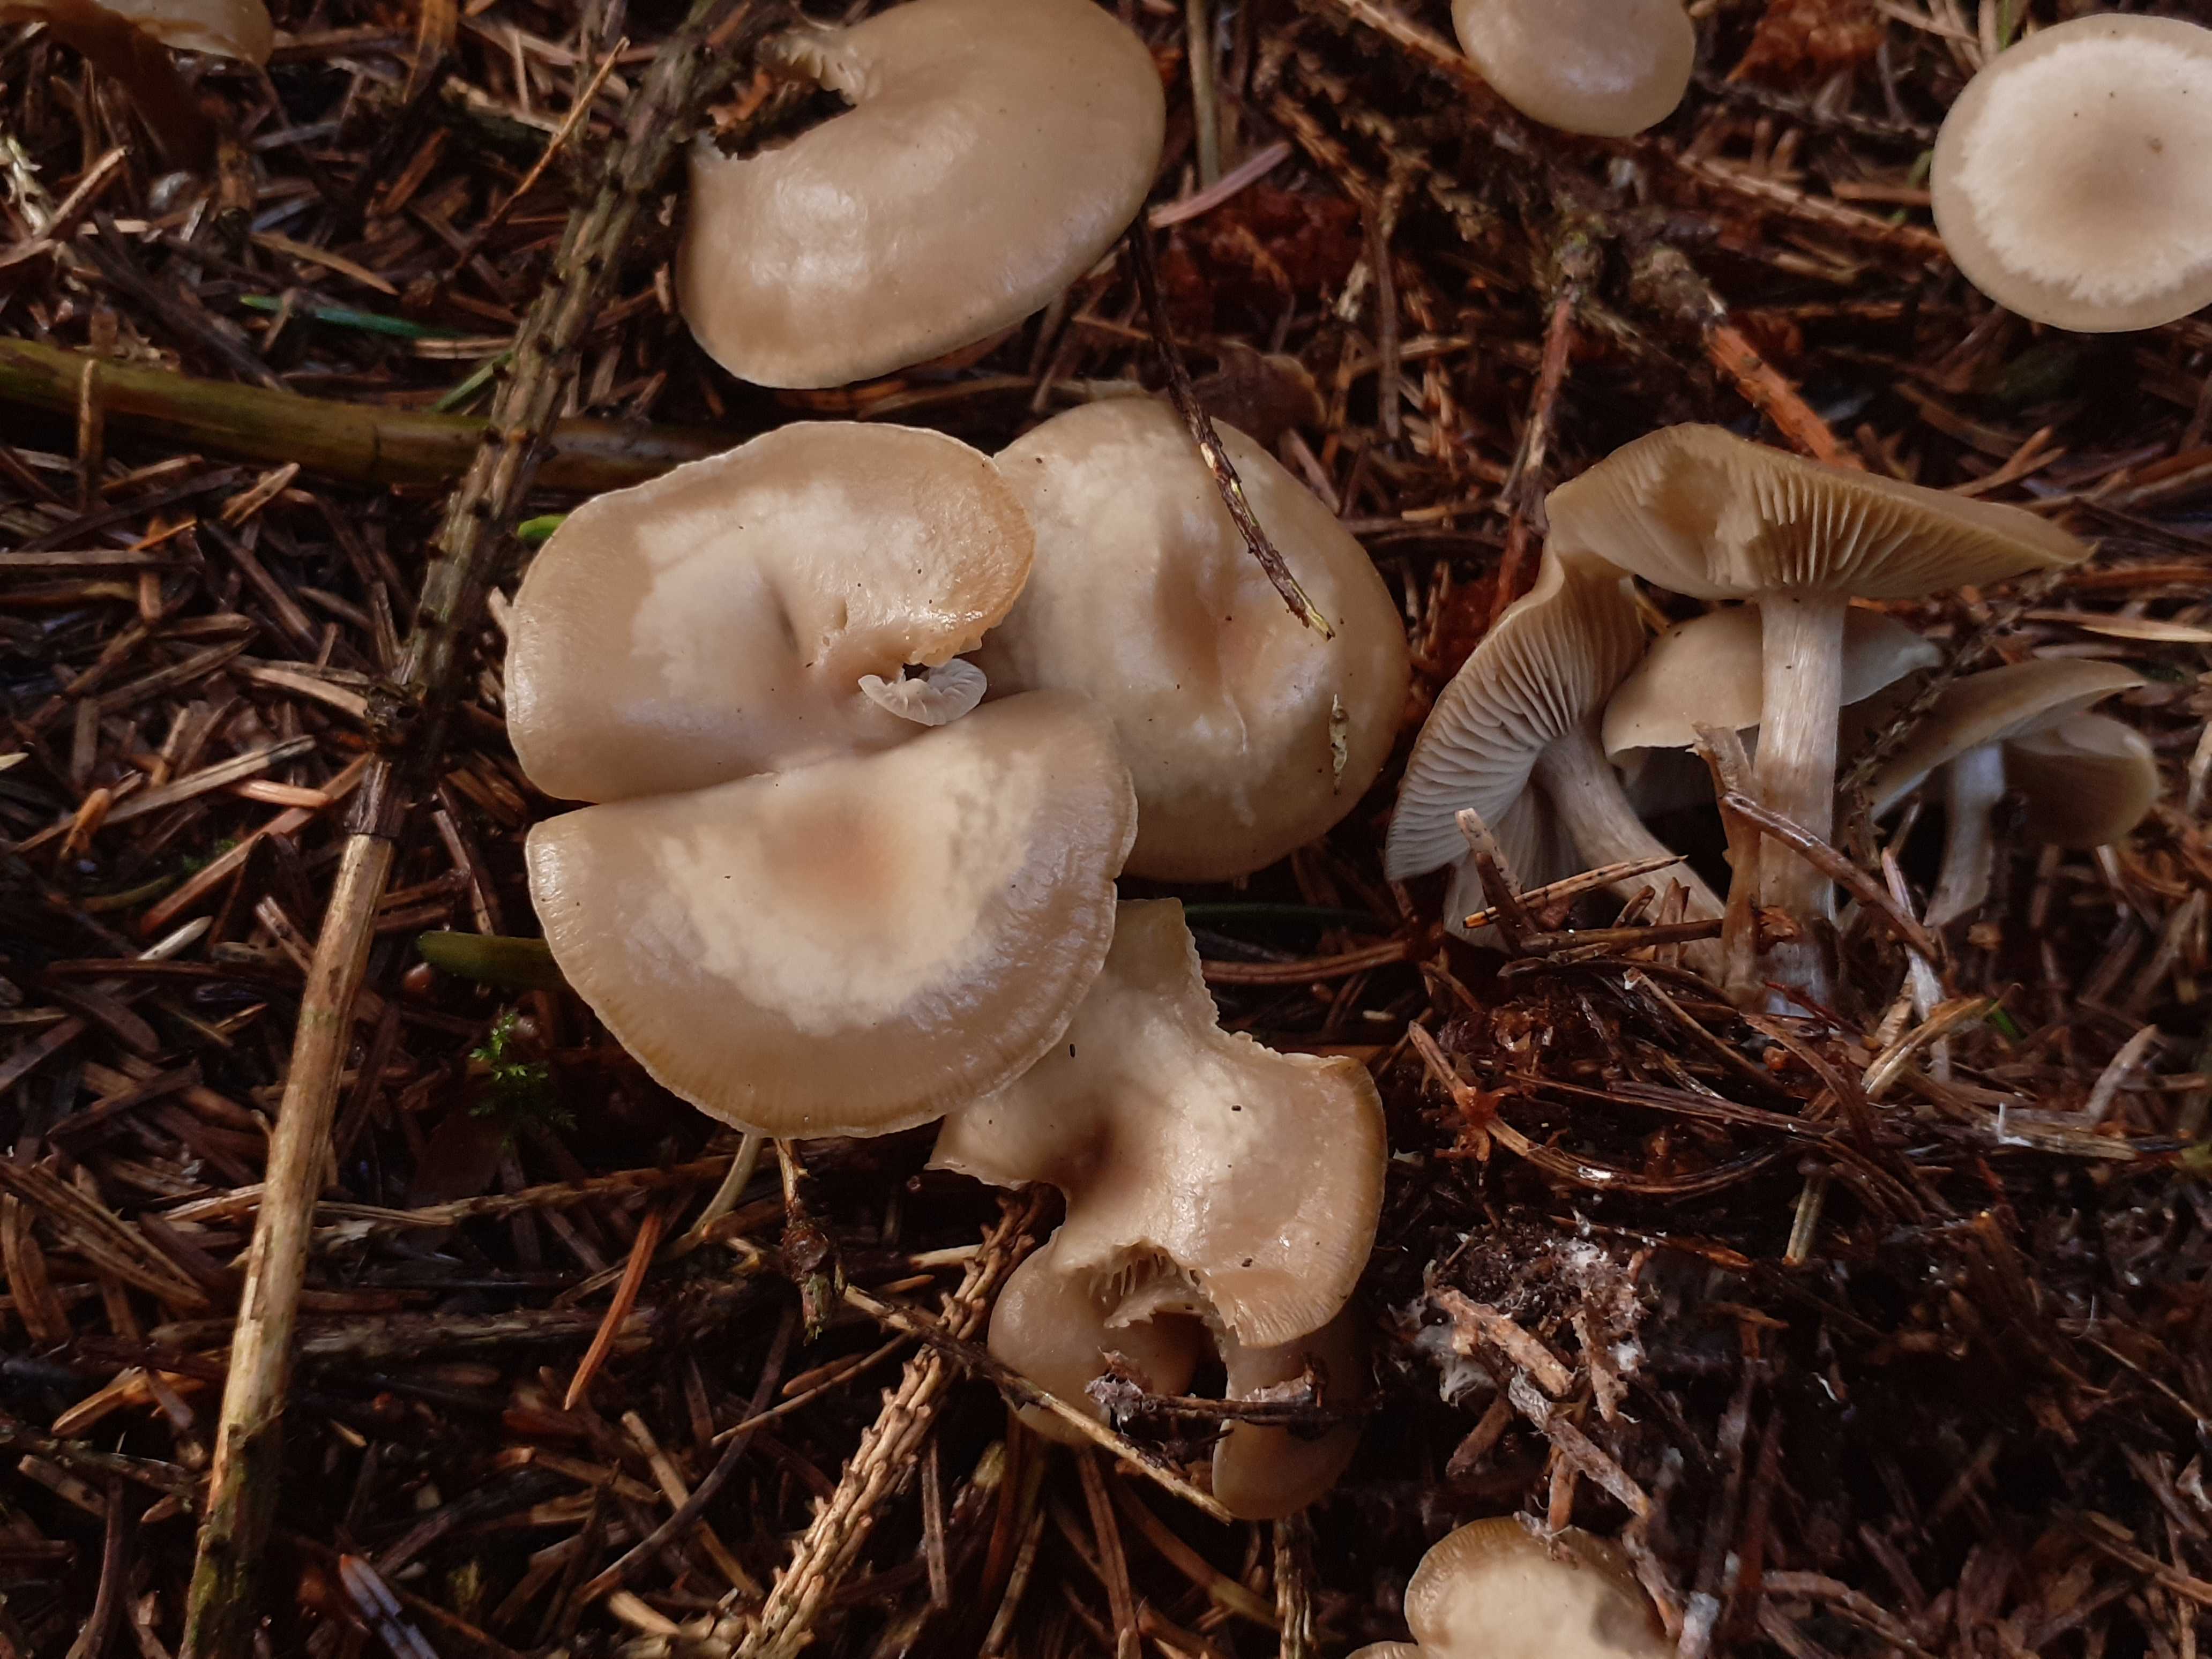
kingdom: Fungi
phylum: Basidiomycota
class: Agaricomycetes
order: Agaricales
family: Lyophyllaceae
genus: Tephrocybe
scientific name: Tephrocybe confusa
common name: trist gråblad
